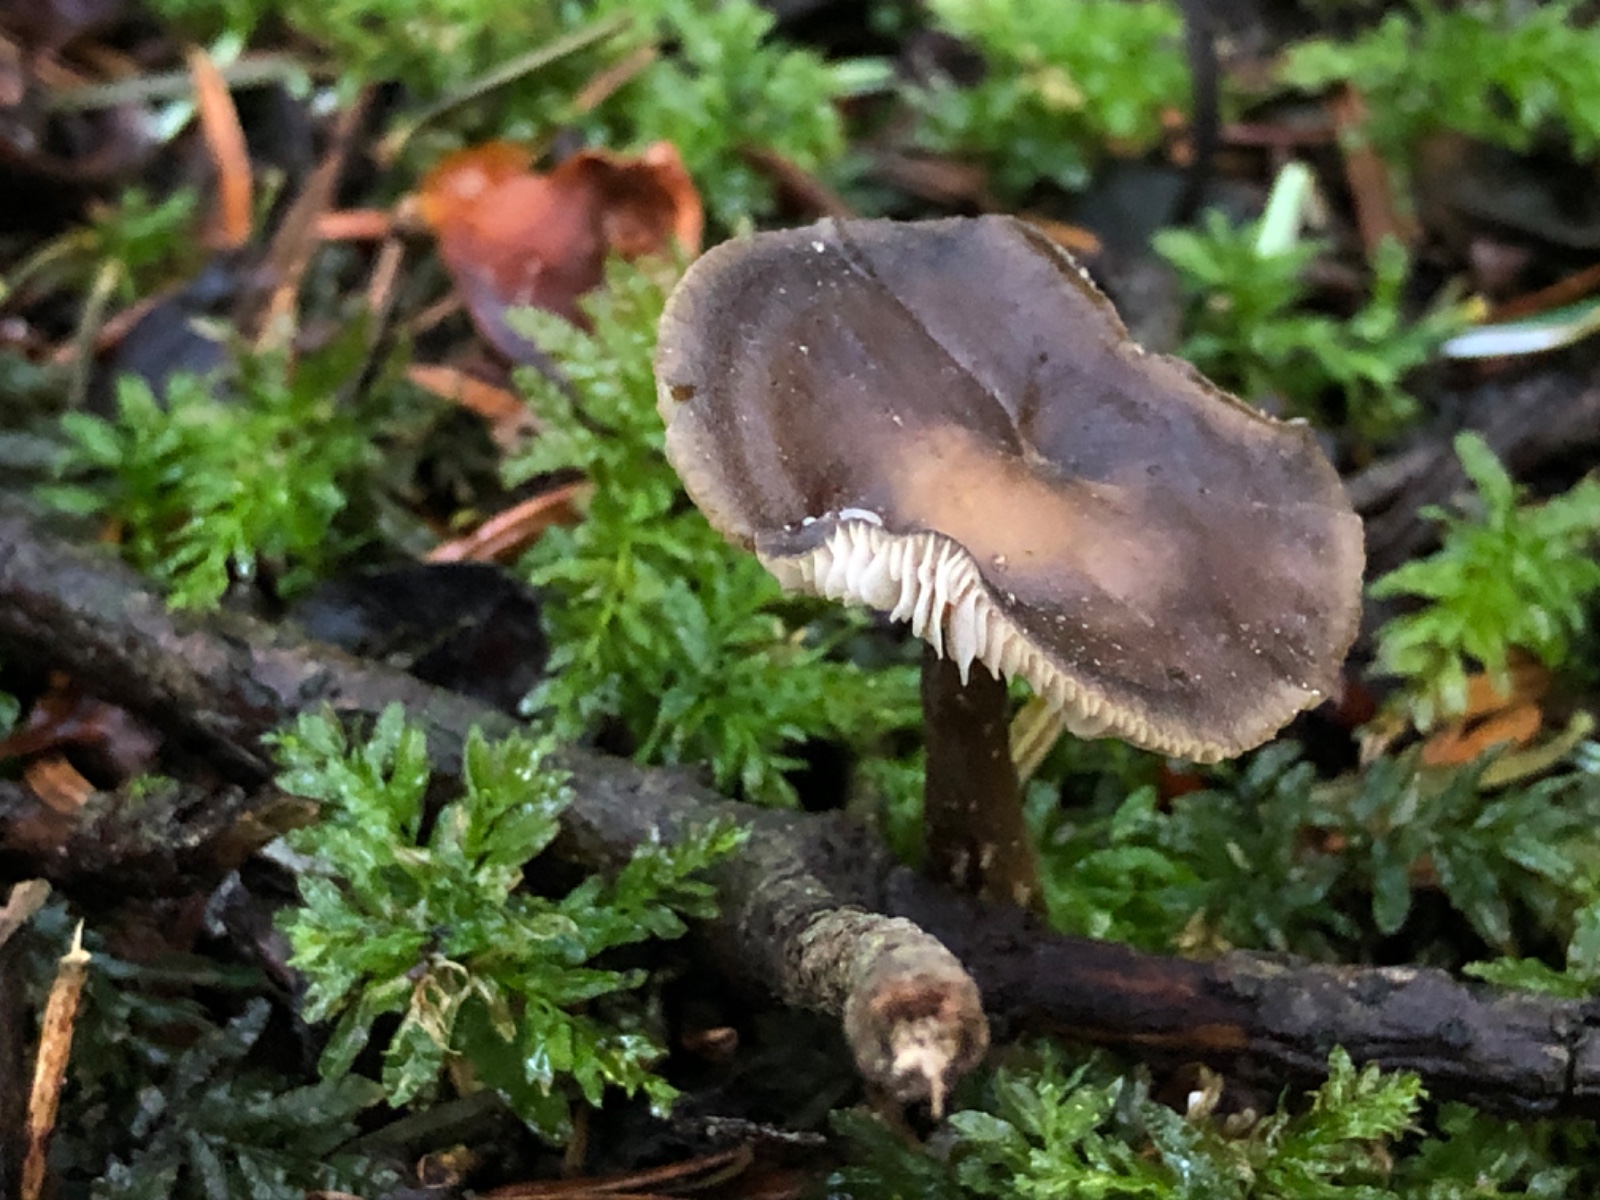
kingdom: Fungi
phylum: Basidiomycota
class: Agaricomycetes
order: Agaricales
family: Tricholomataceae
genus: Melanoleuca
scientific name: Melanoleuca
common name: munkehat
